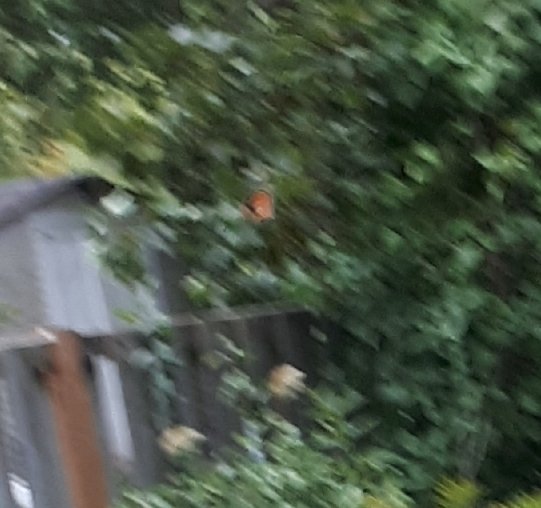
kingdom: Animalia
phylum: Arthropoda
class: Insecta
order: Lepidoptera
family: Nymphalidae
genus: Danaus
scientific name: Danaus plexippus
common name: Monarch
